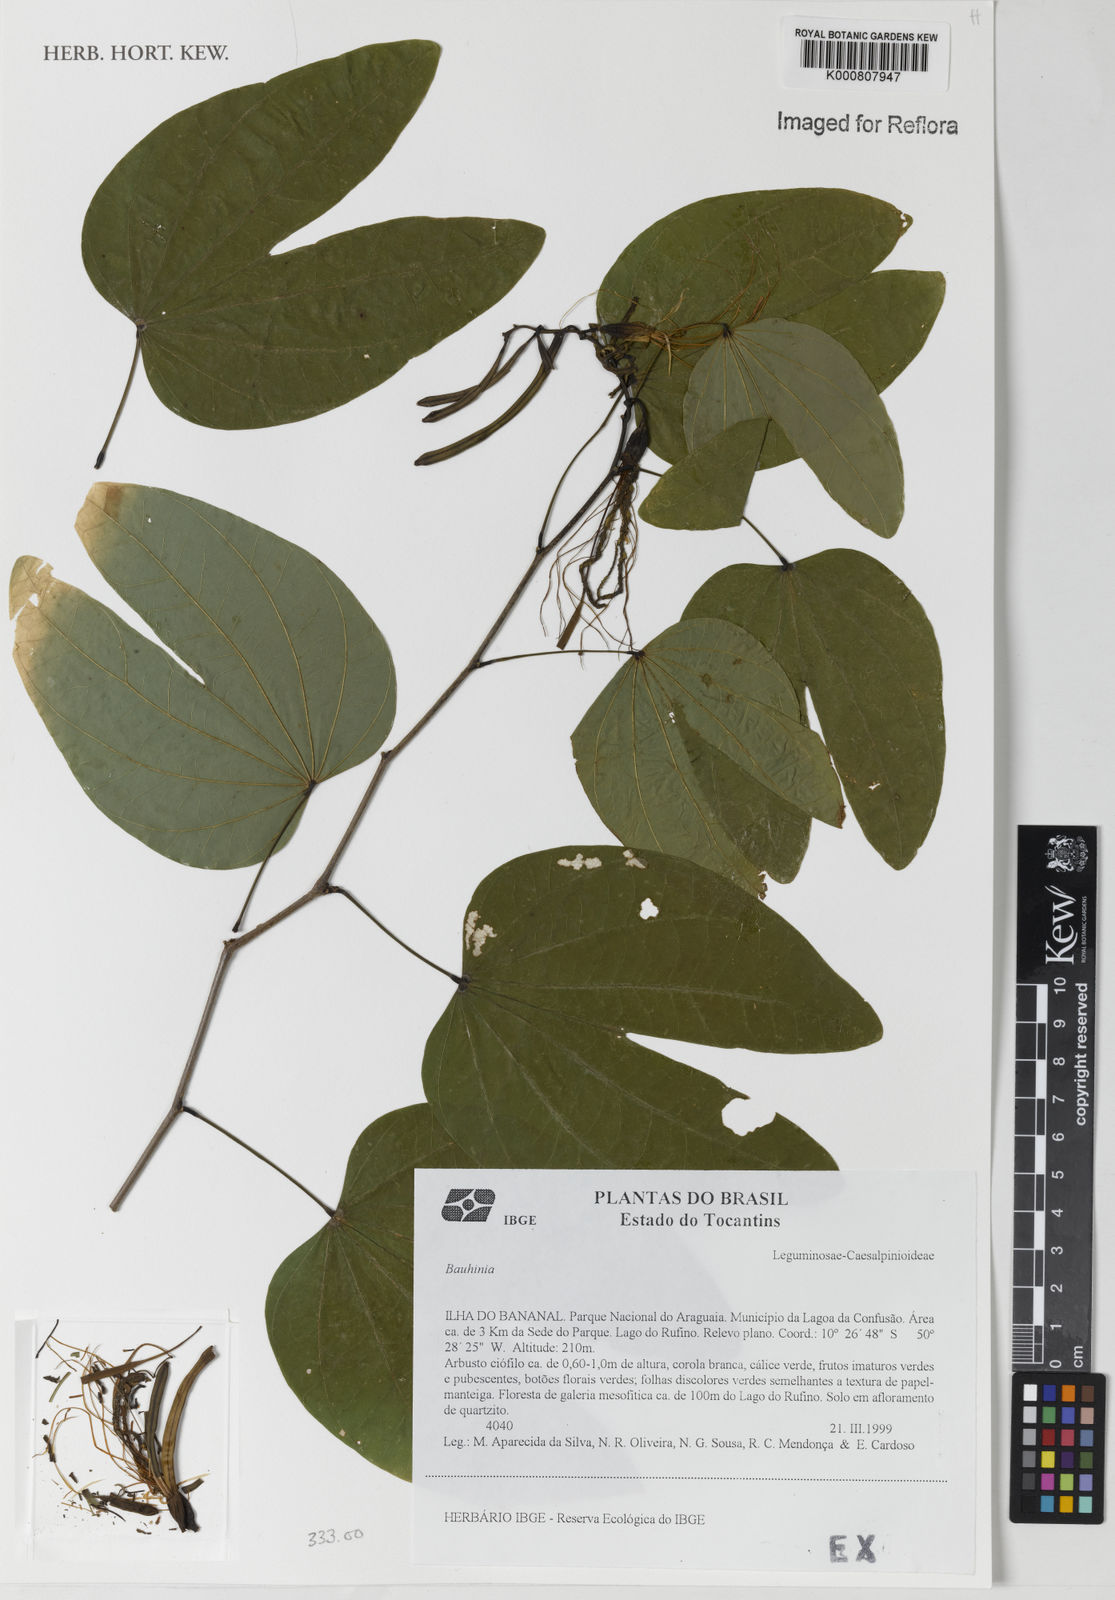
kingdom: Plantae
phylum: Tracheophyta
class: Magnoliopsida
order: Fabales
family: Fabaceae
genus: Bauhinia
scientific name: Bauhinia
